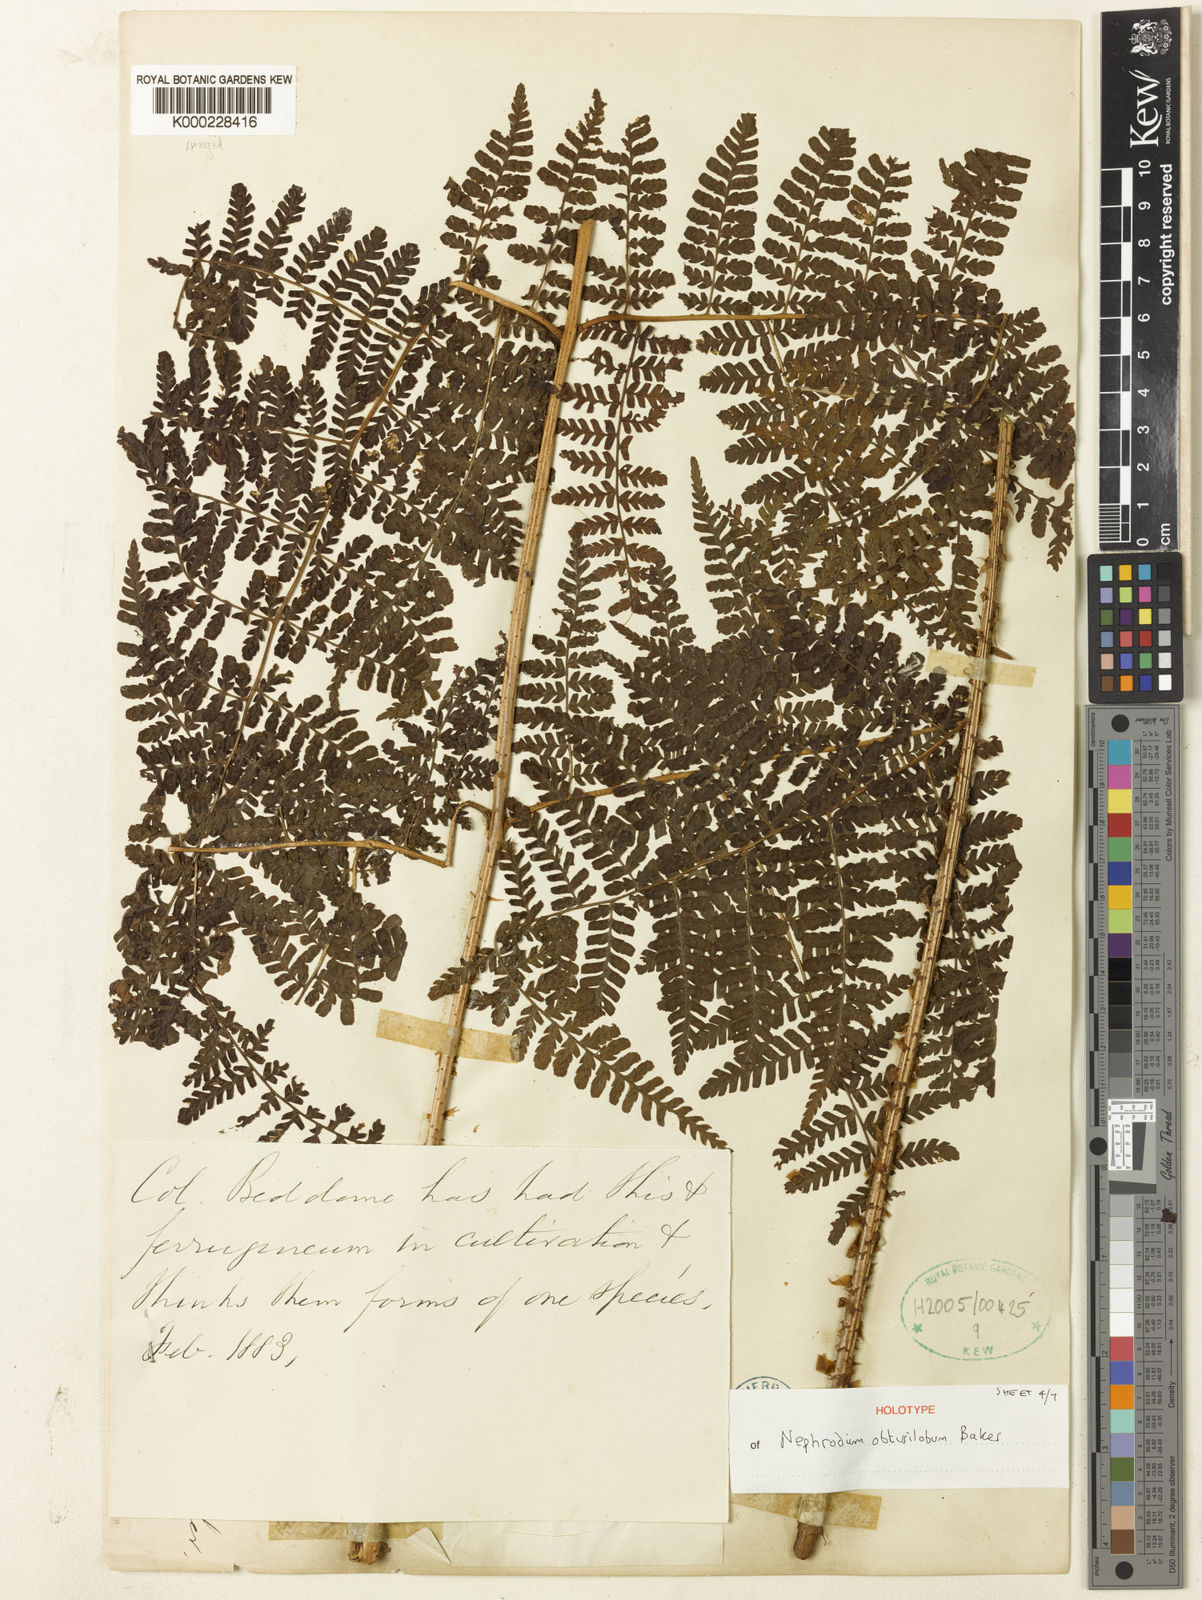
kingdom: Plantae
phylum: Tracheophyta
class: Polypodiopsida
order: Polypodiales
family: Dryopteridaceae
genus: Dryopteris
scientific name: Dryopteris obtusiloba
